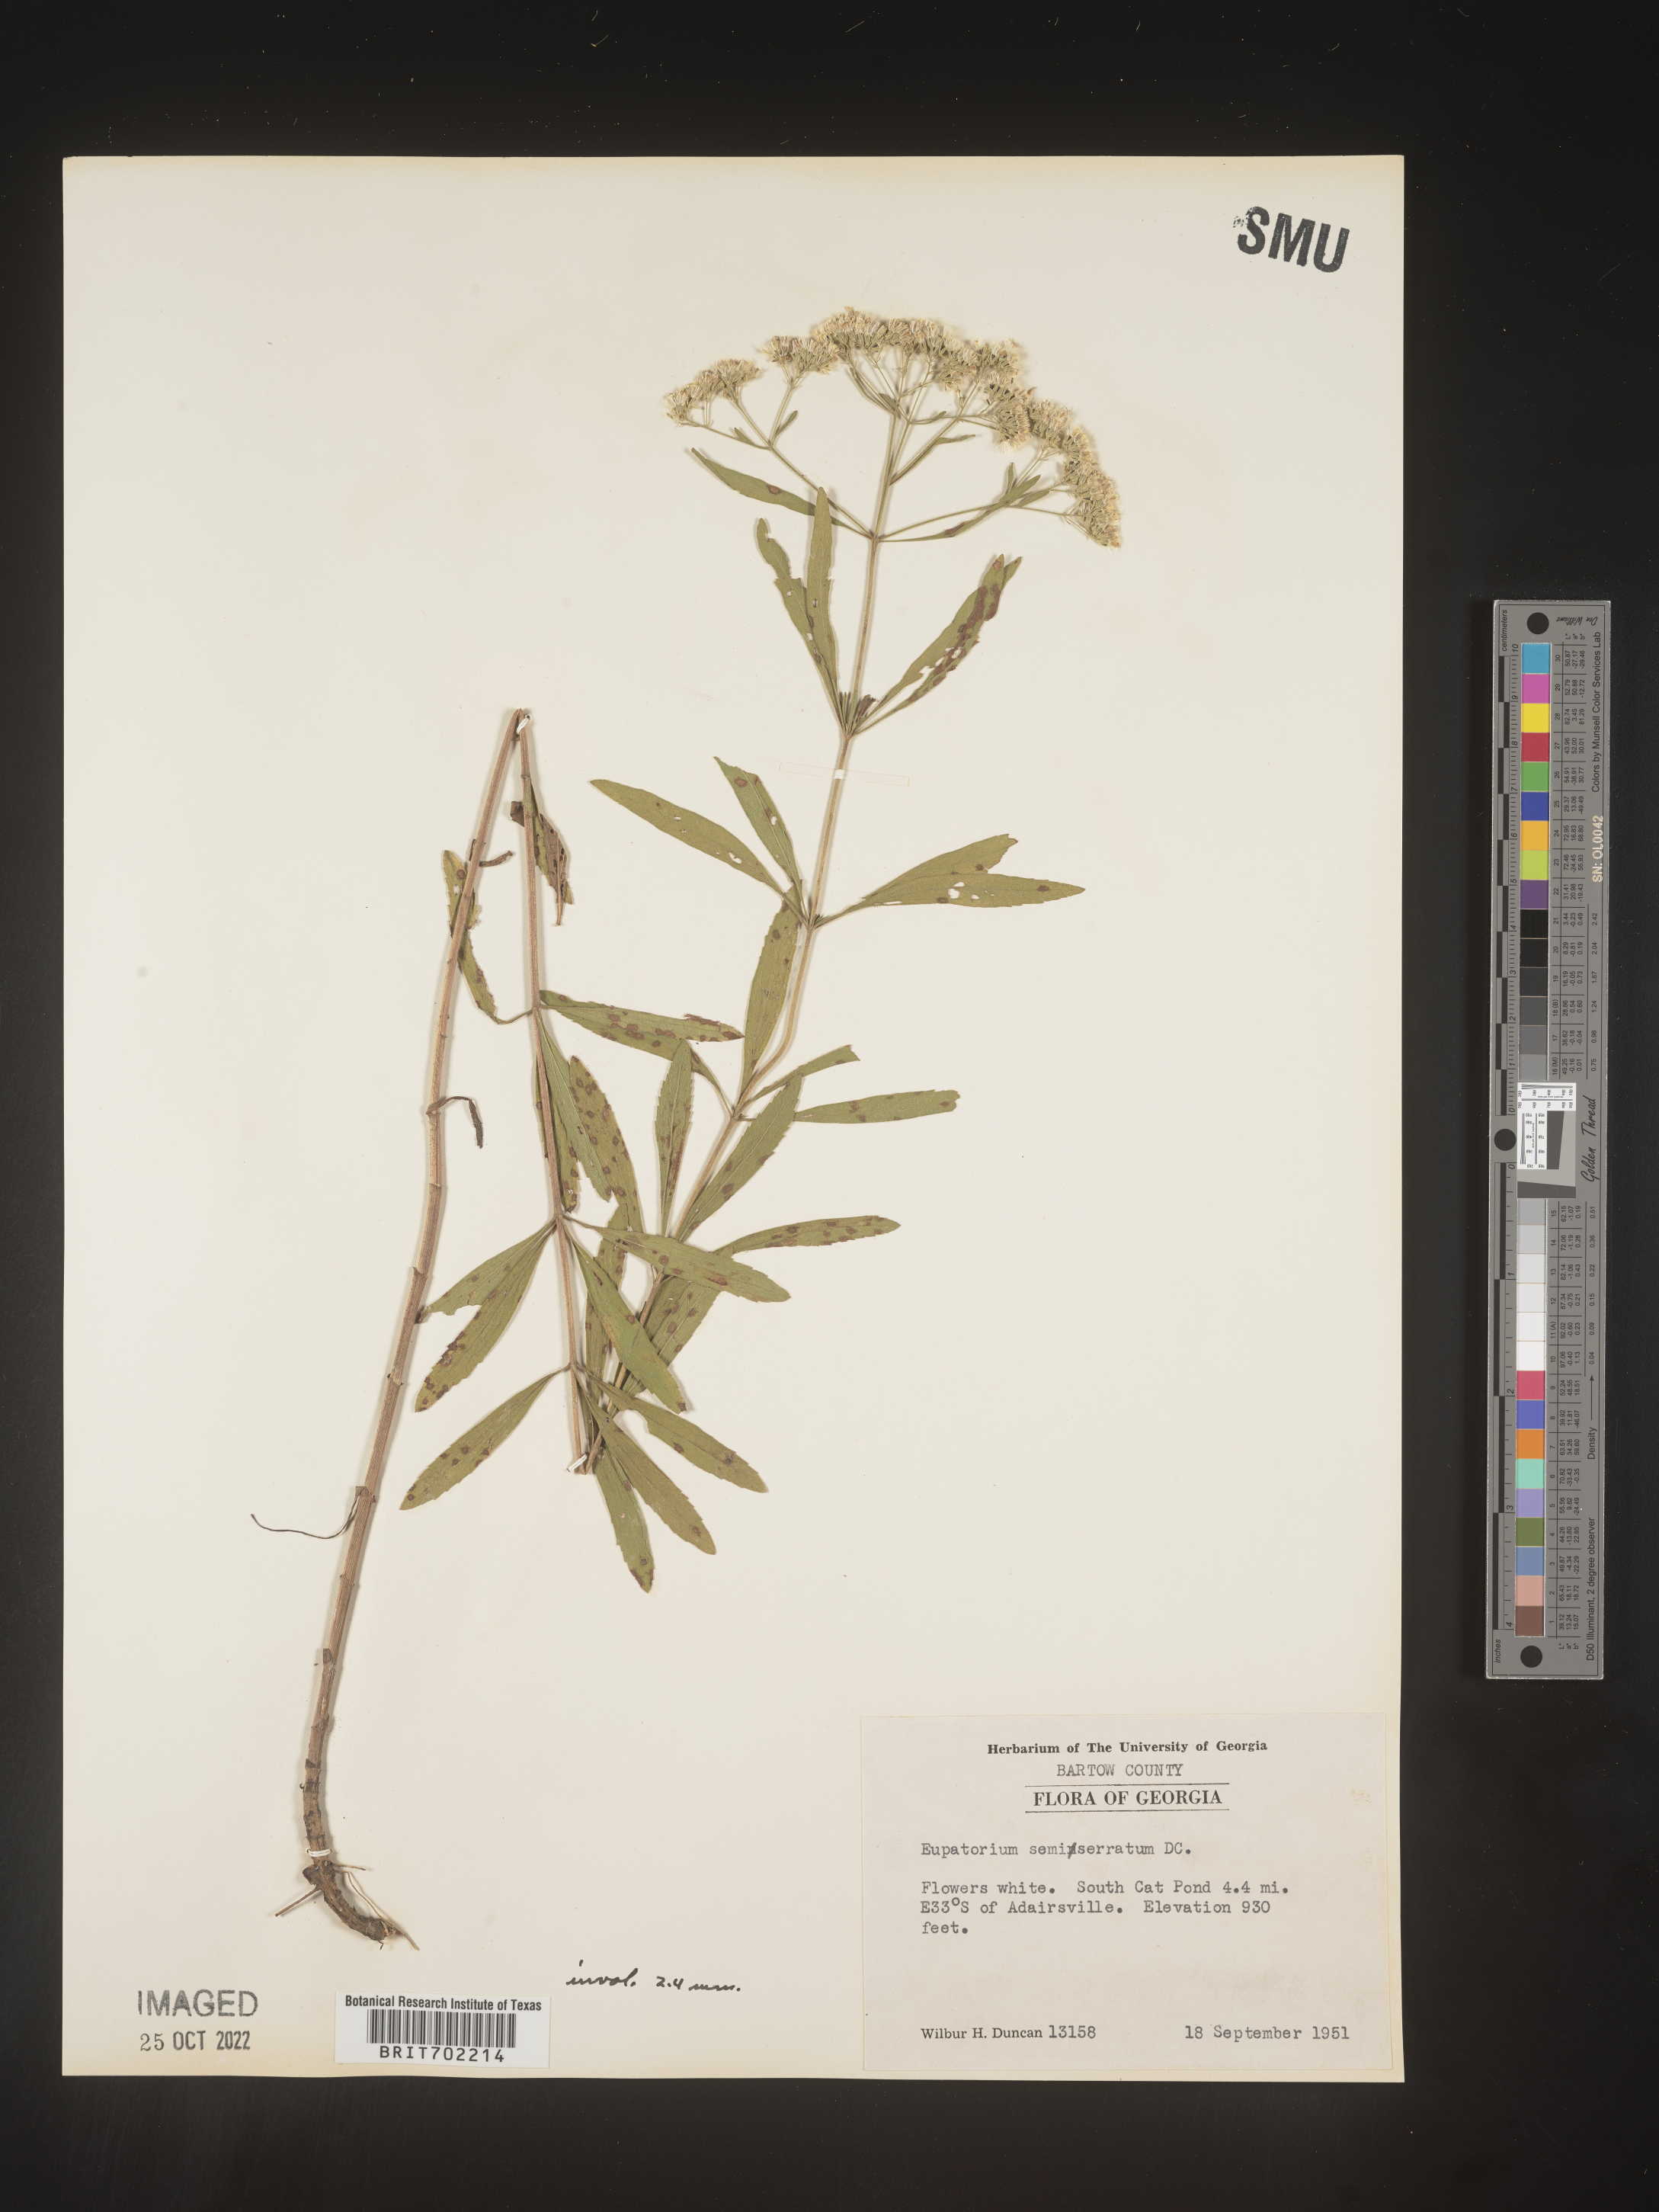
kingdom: Plantae
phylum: Tracheophyta
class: Magnoliopsida
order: Asterales
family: Asteraceae
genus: Eupatorium
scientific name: Eupatorium semiserratum
